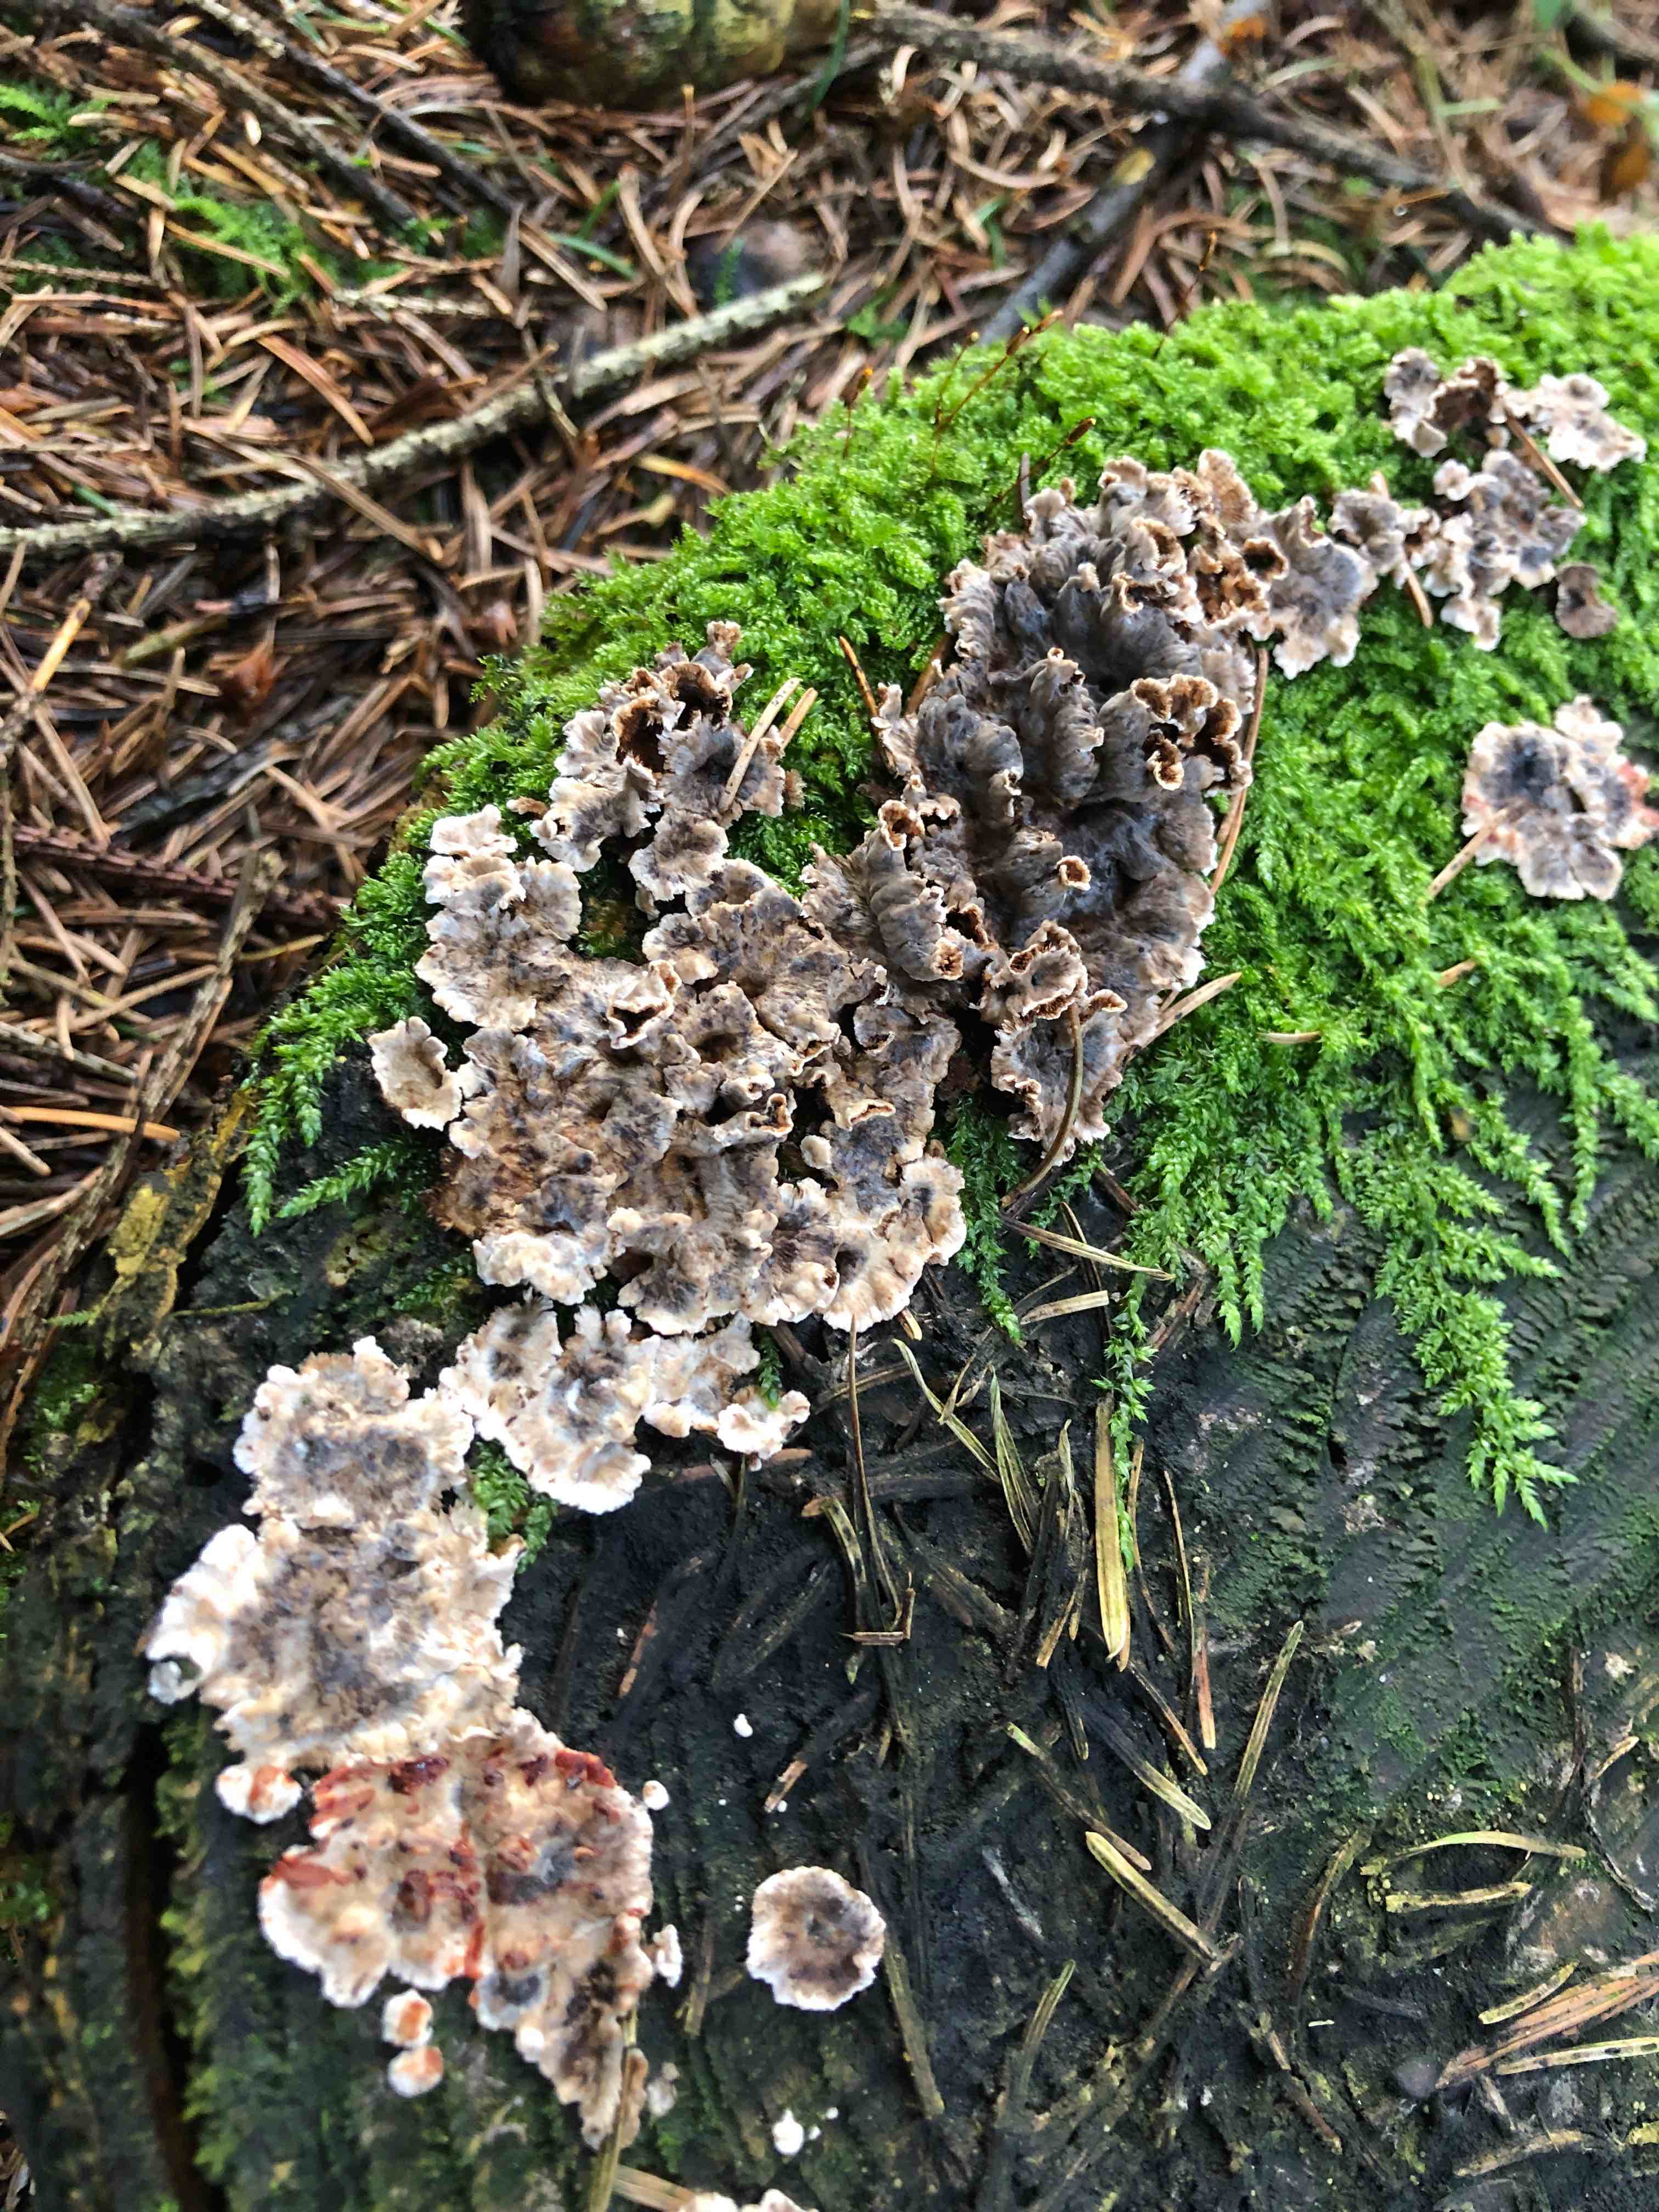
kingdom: Fungi
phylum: Basidiomycota
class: Agaricomycetes
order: Russulales
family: Stereaceae
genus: Stereum
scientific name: Stereum sanguinolentum
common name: blødende lædersvamp
